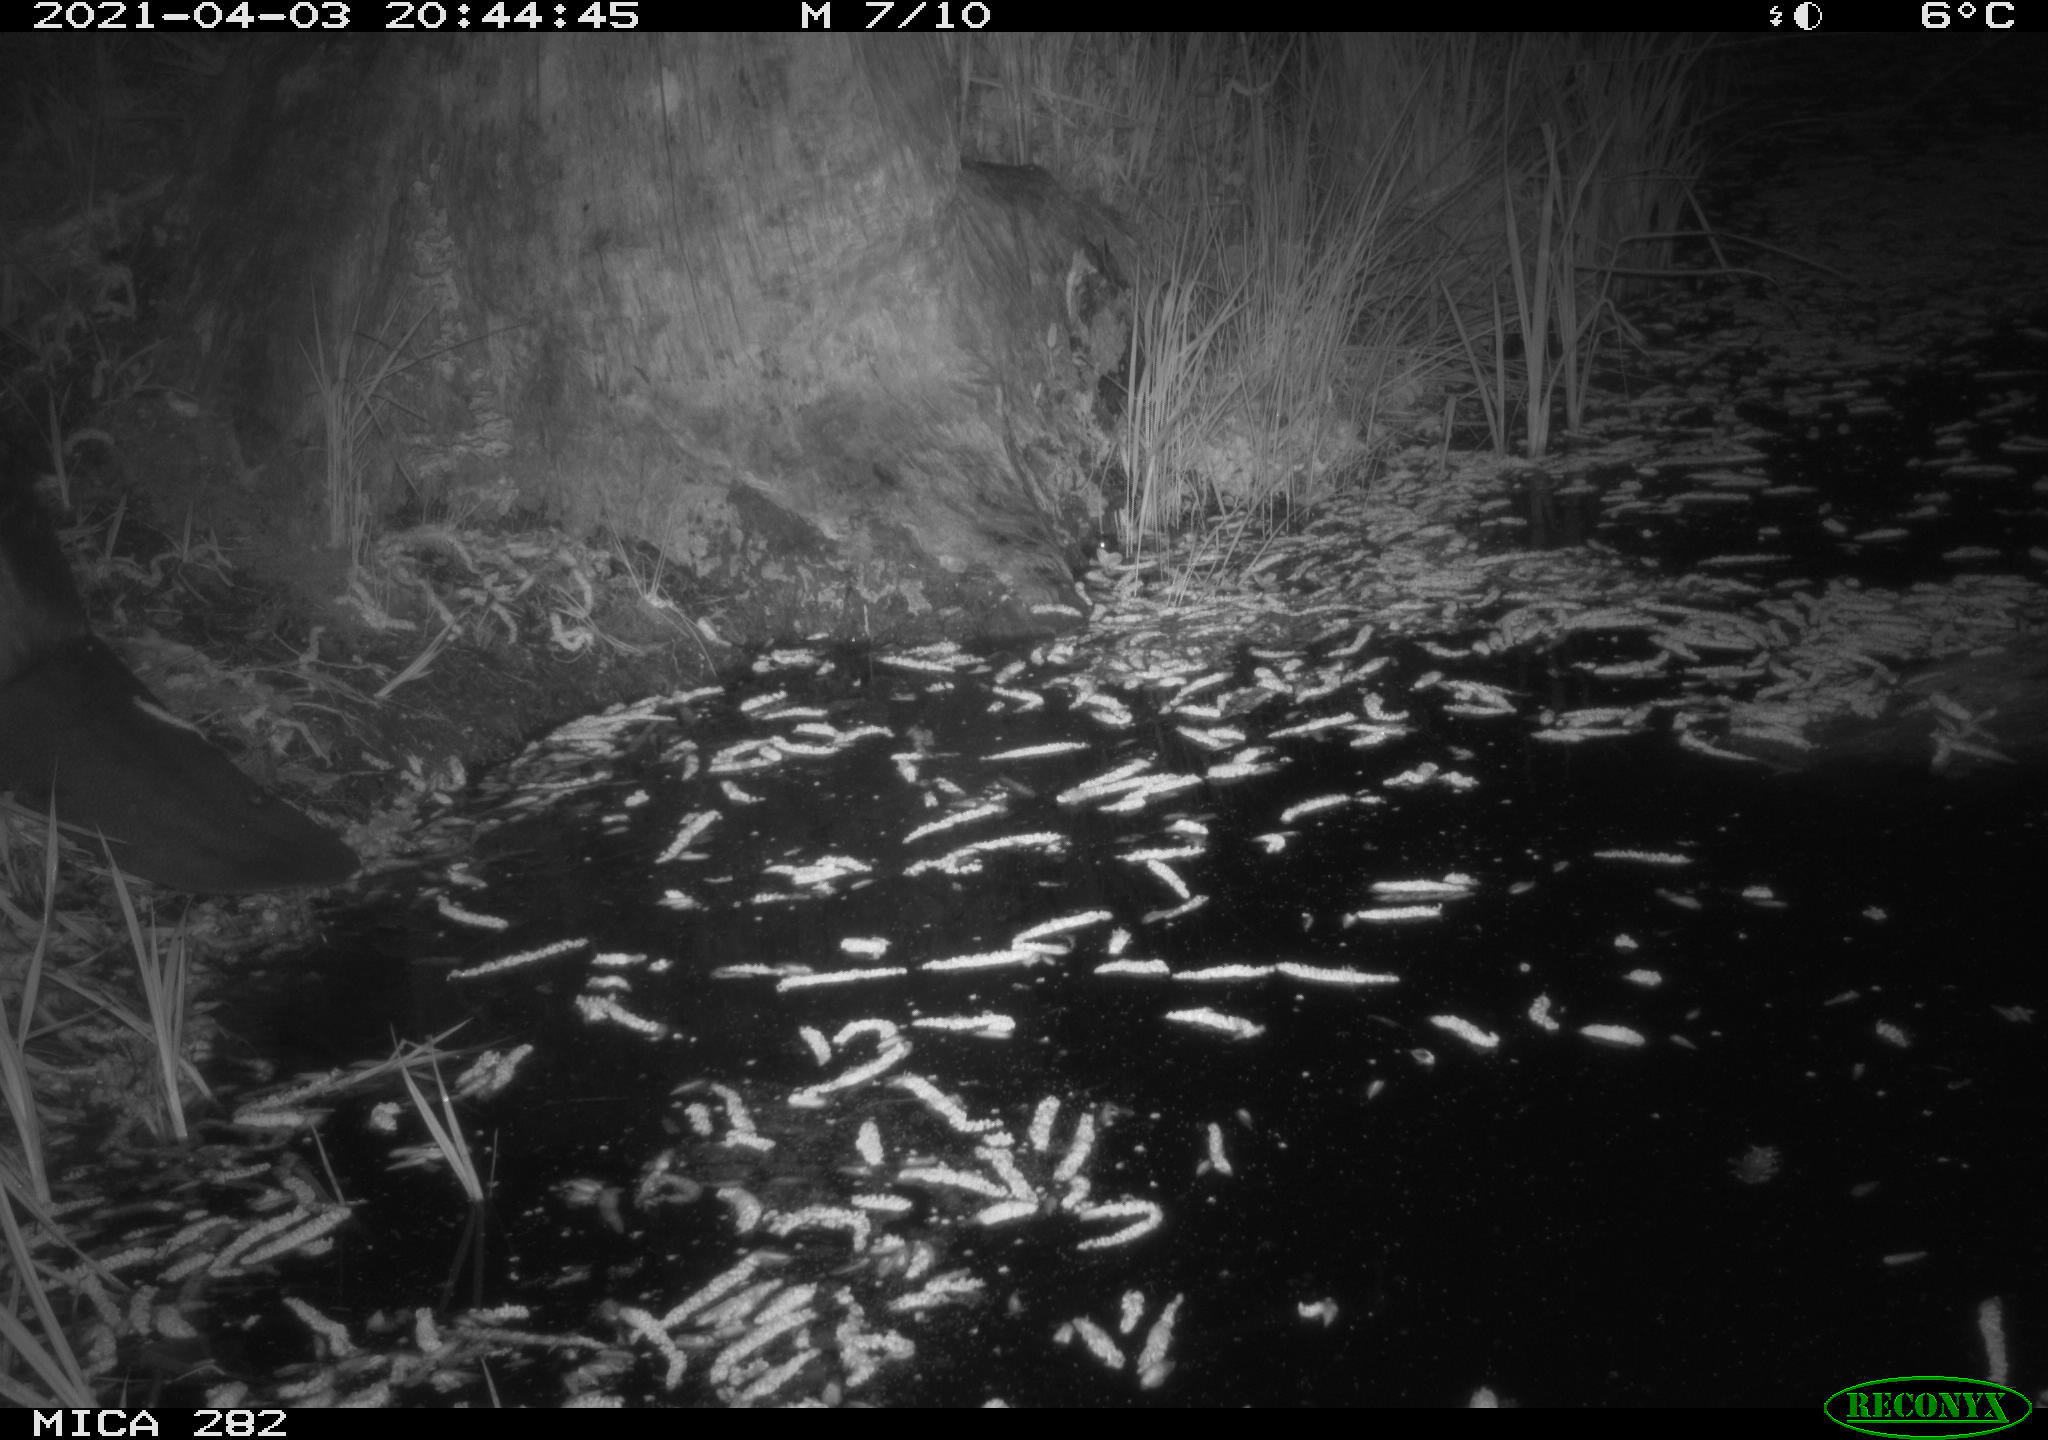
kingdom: Animalia
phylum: Chordata
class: Mammalia
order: Rodentia
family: Castoridae
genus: Castor
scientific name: Castor fiber
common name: Eurasian beaver
